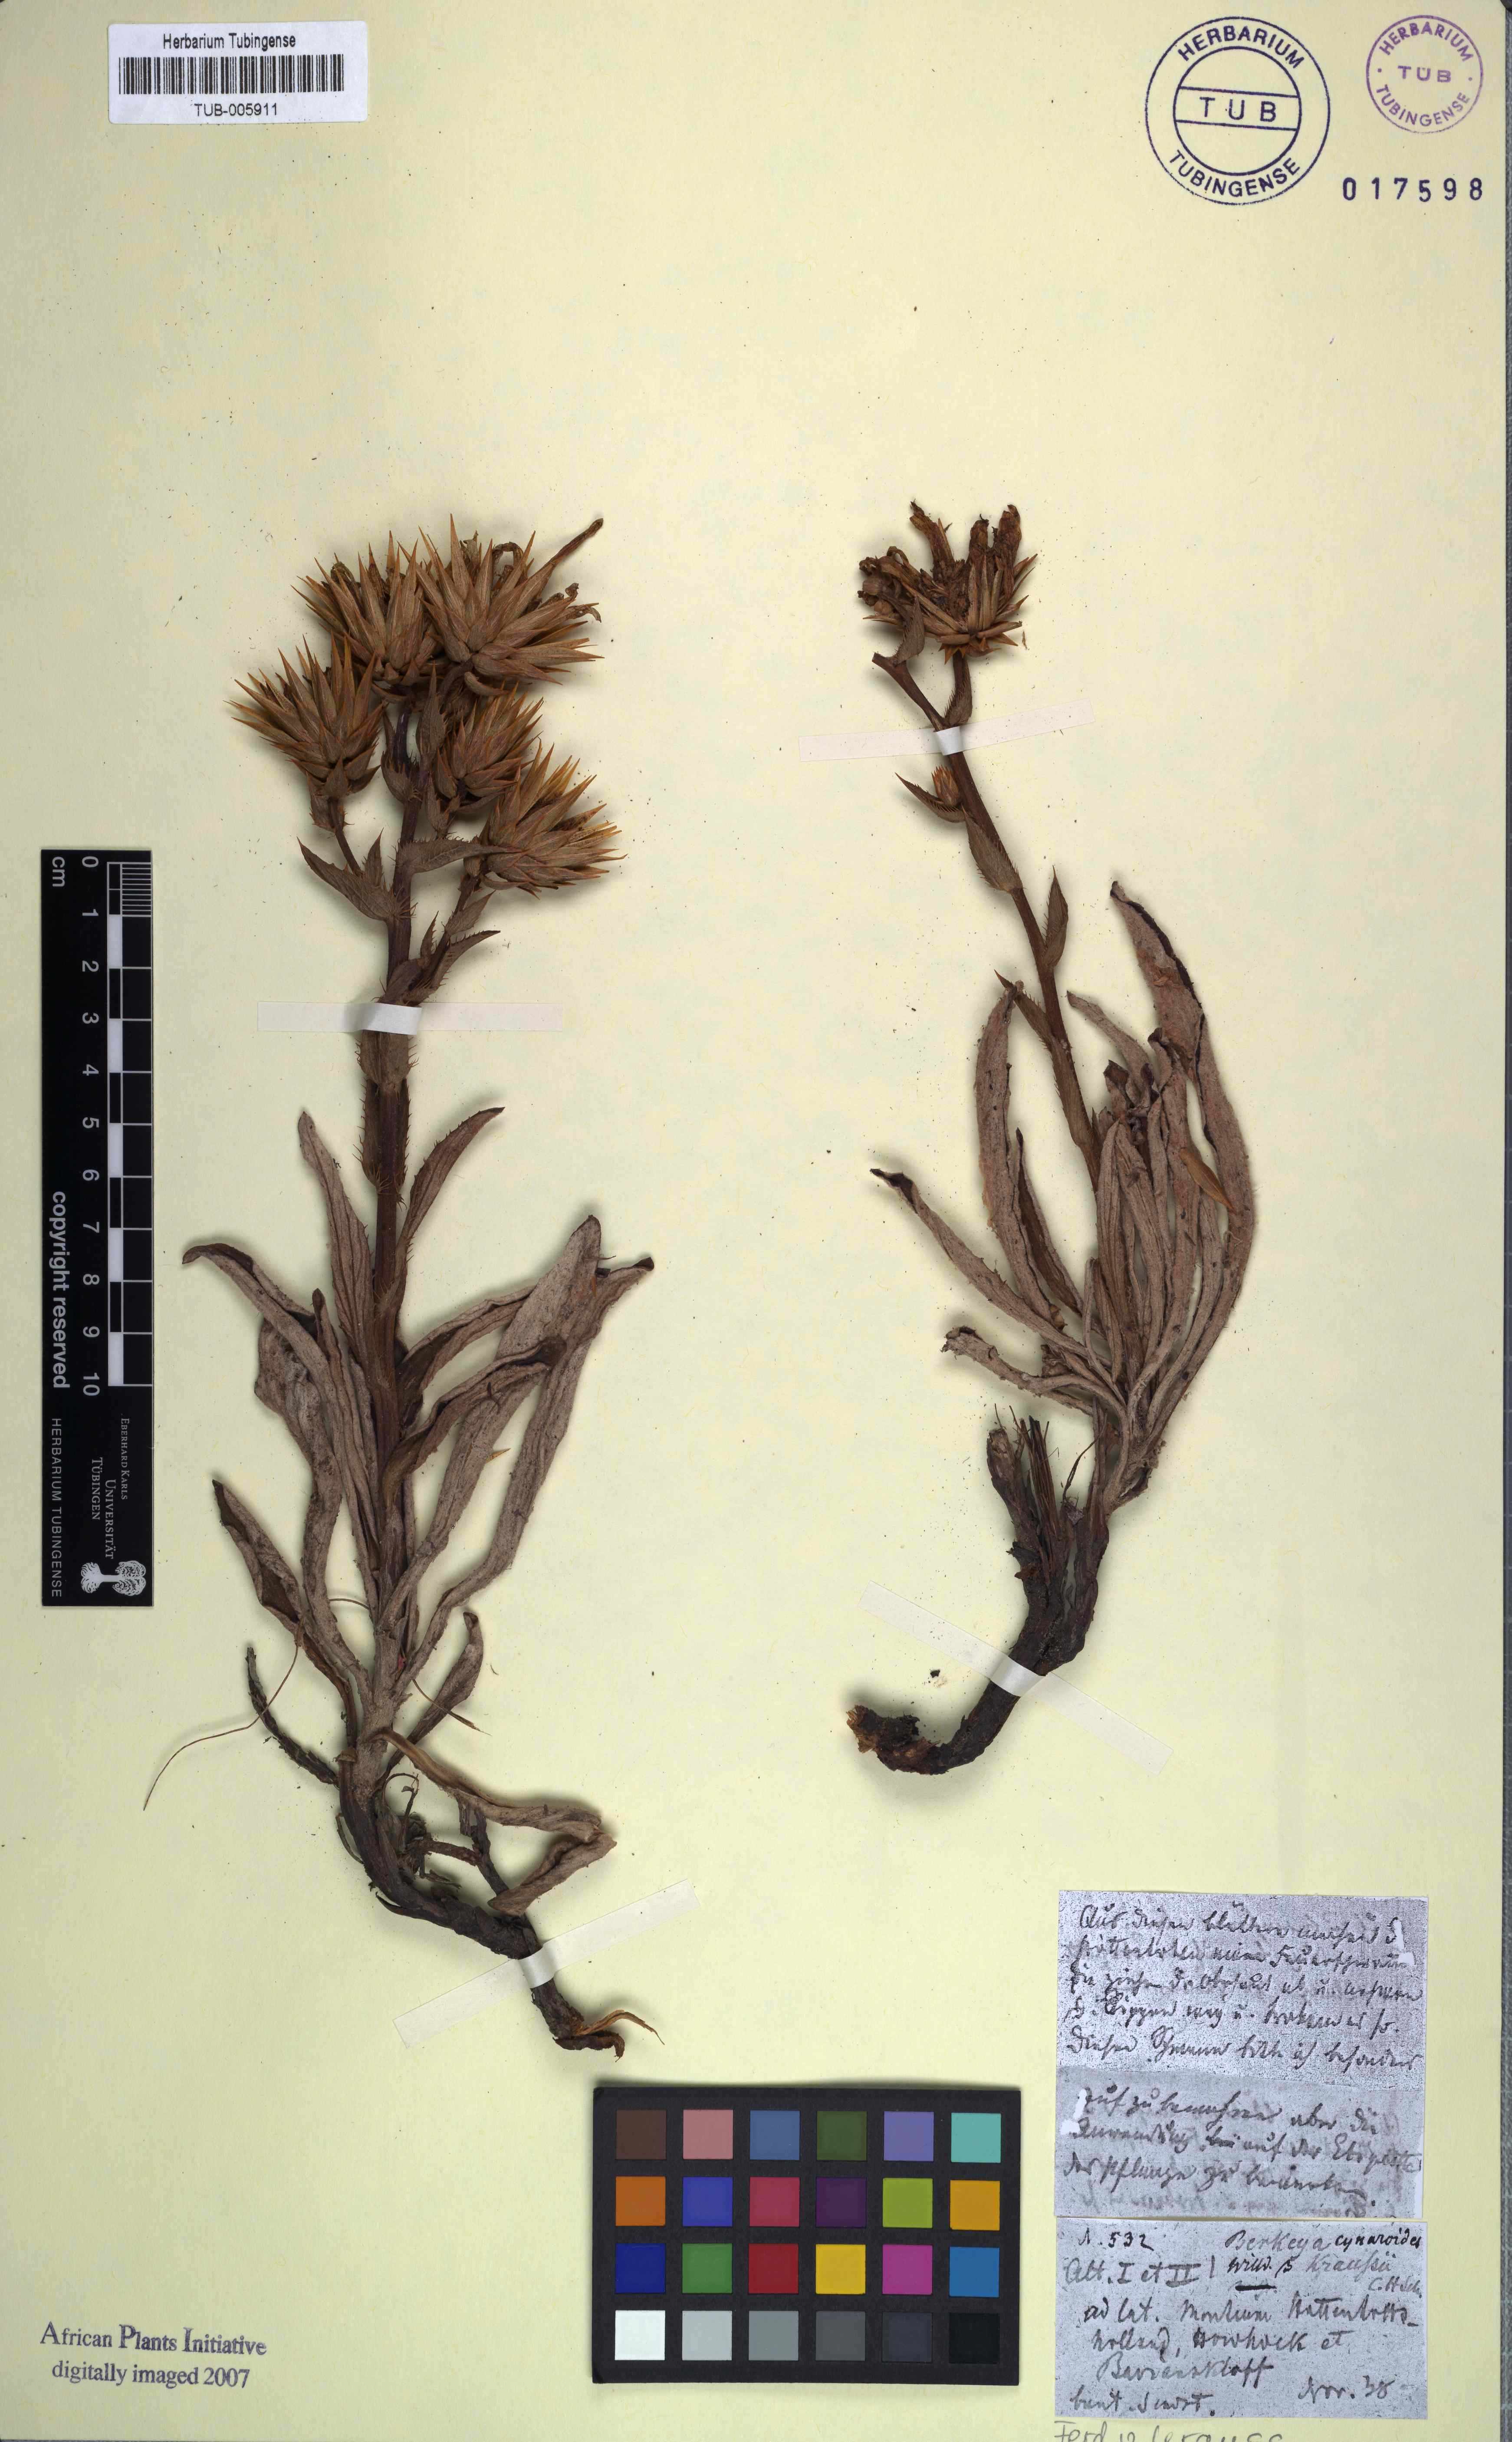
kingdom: Plantae
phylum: Tracheophyta
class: Magnoliopsida
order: Asterales
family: Asteraceae
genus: Berkheya
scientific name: Berkheya herbacea
